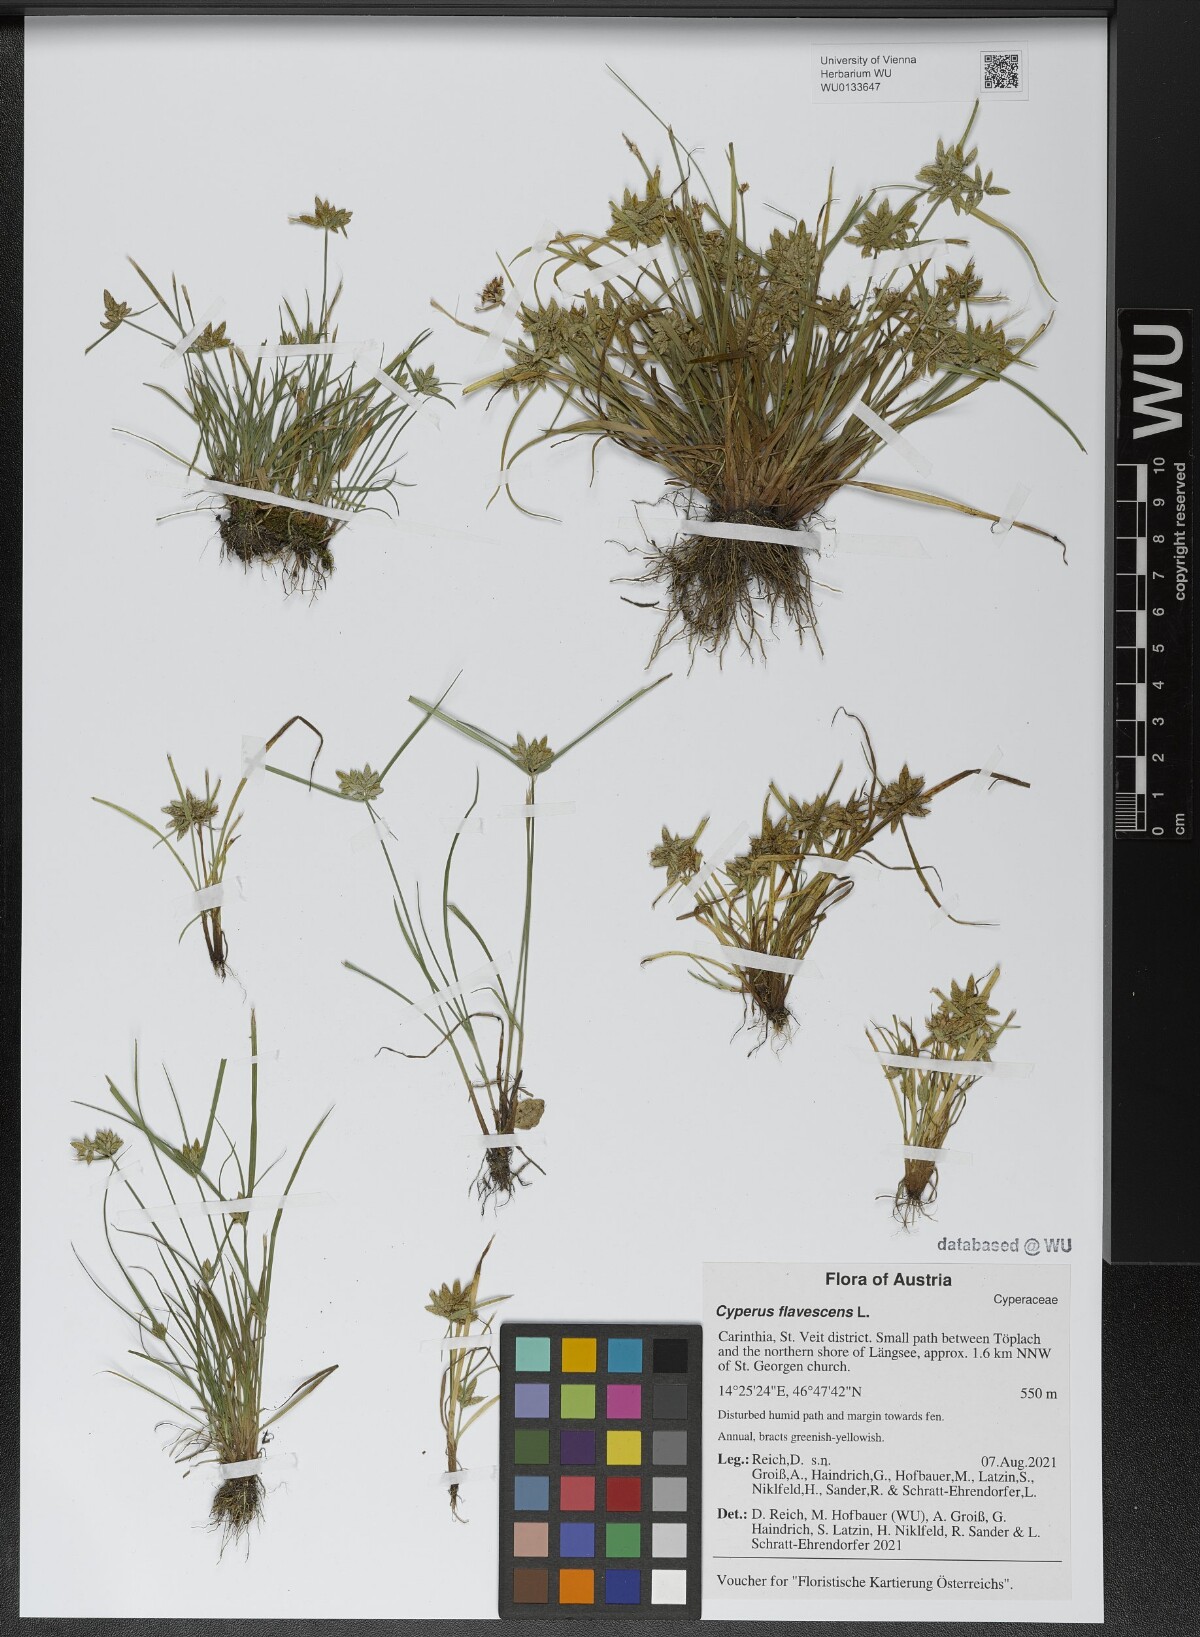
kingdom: Plantae
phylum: Tracheophyta
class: Liliopsida
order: Poales
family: Cyperaceae
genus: Cyperus
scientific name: Cyperus flavescens
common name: Yellow galingale
